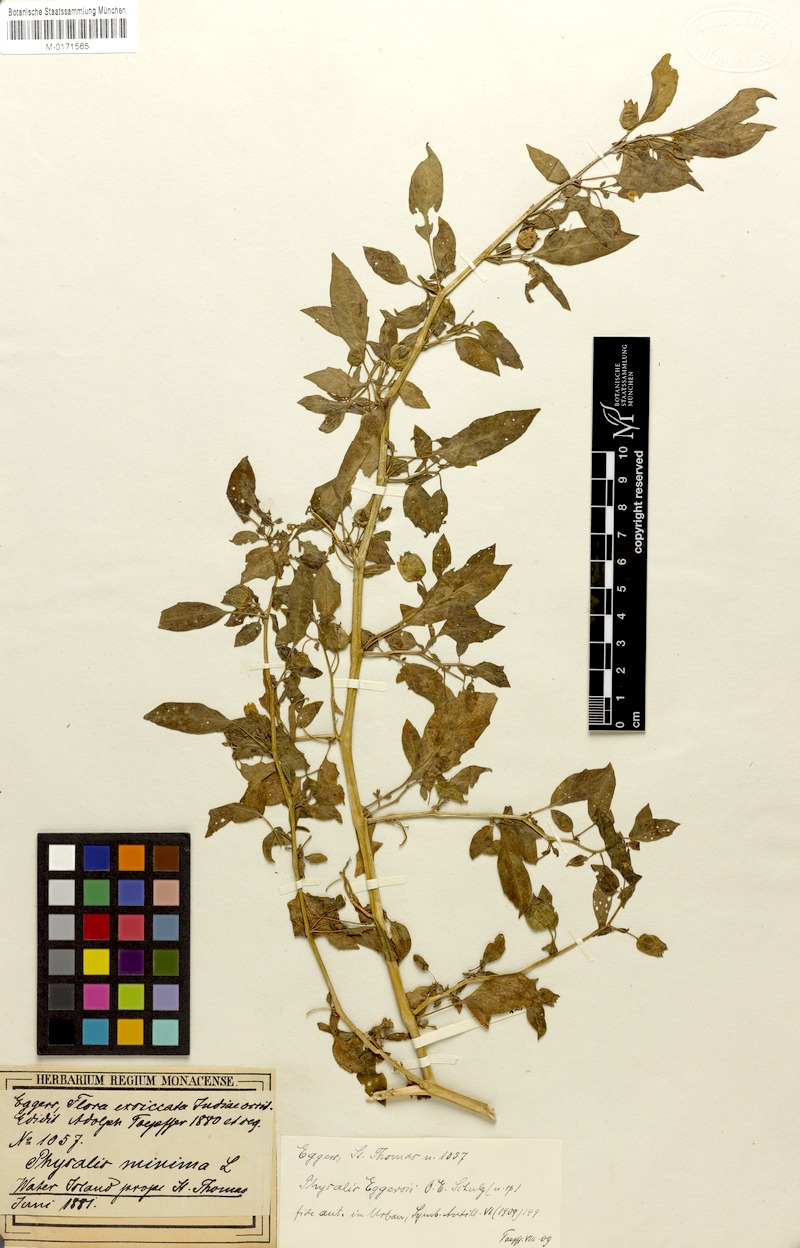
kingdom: Plantae
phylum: Tracheophyta
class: Magnoliopsida
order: Solanales
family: Solanaceae
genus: Physalis
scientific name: Physalis eggersii
